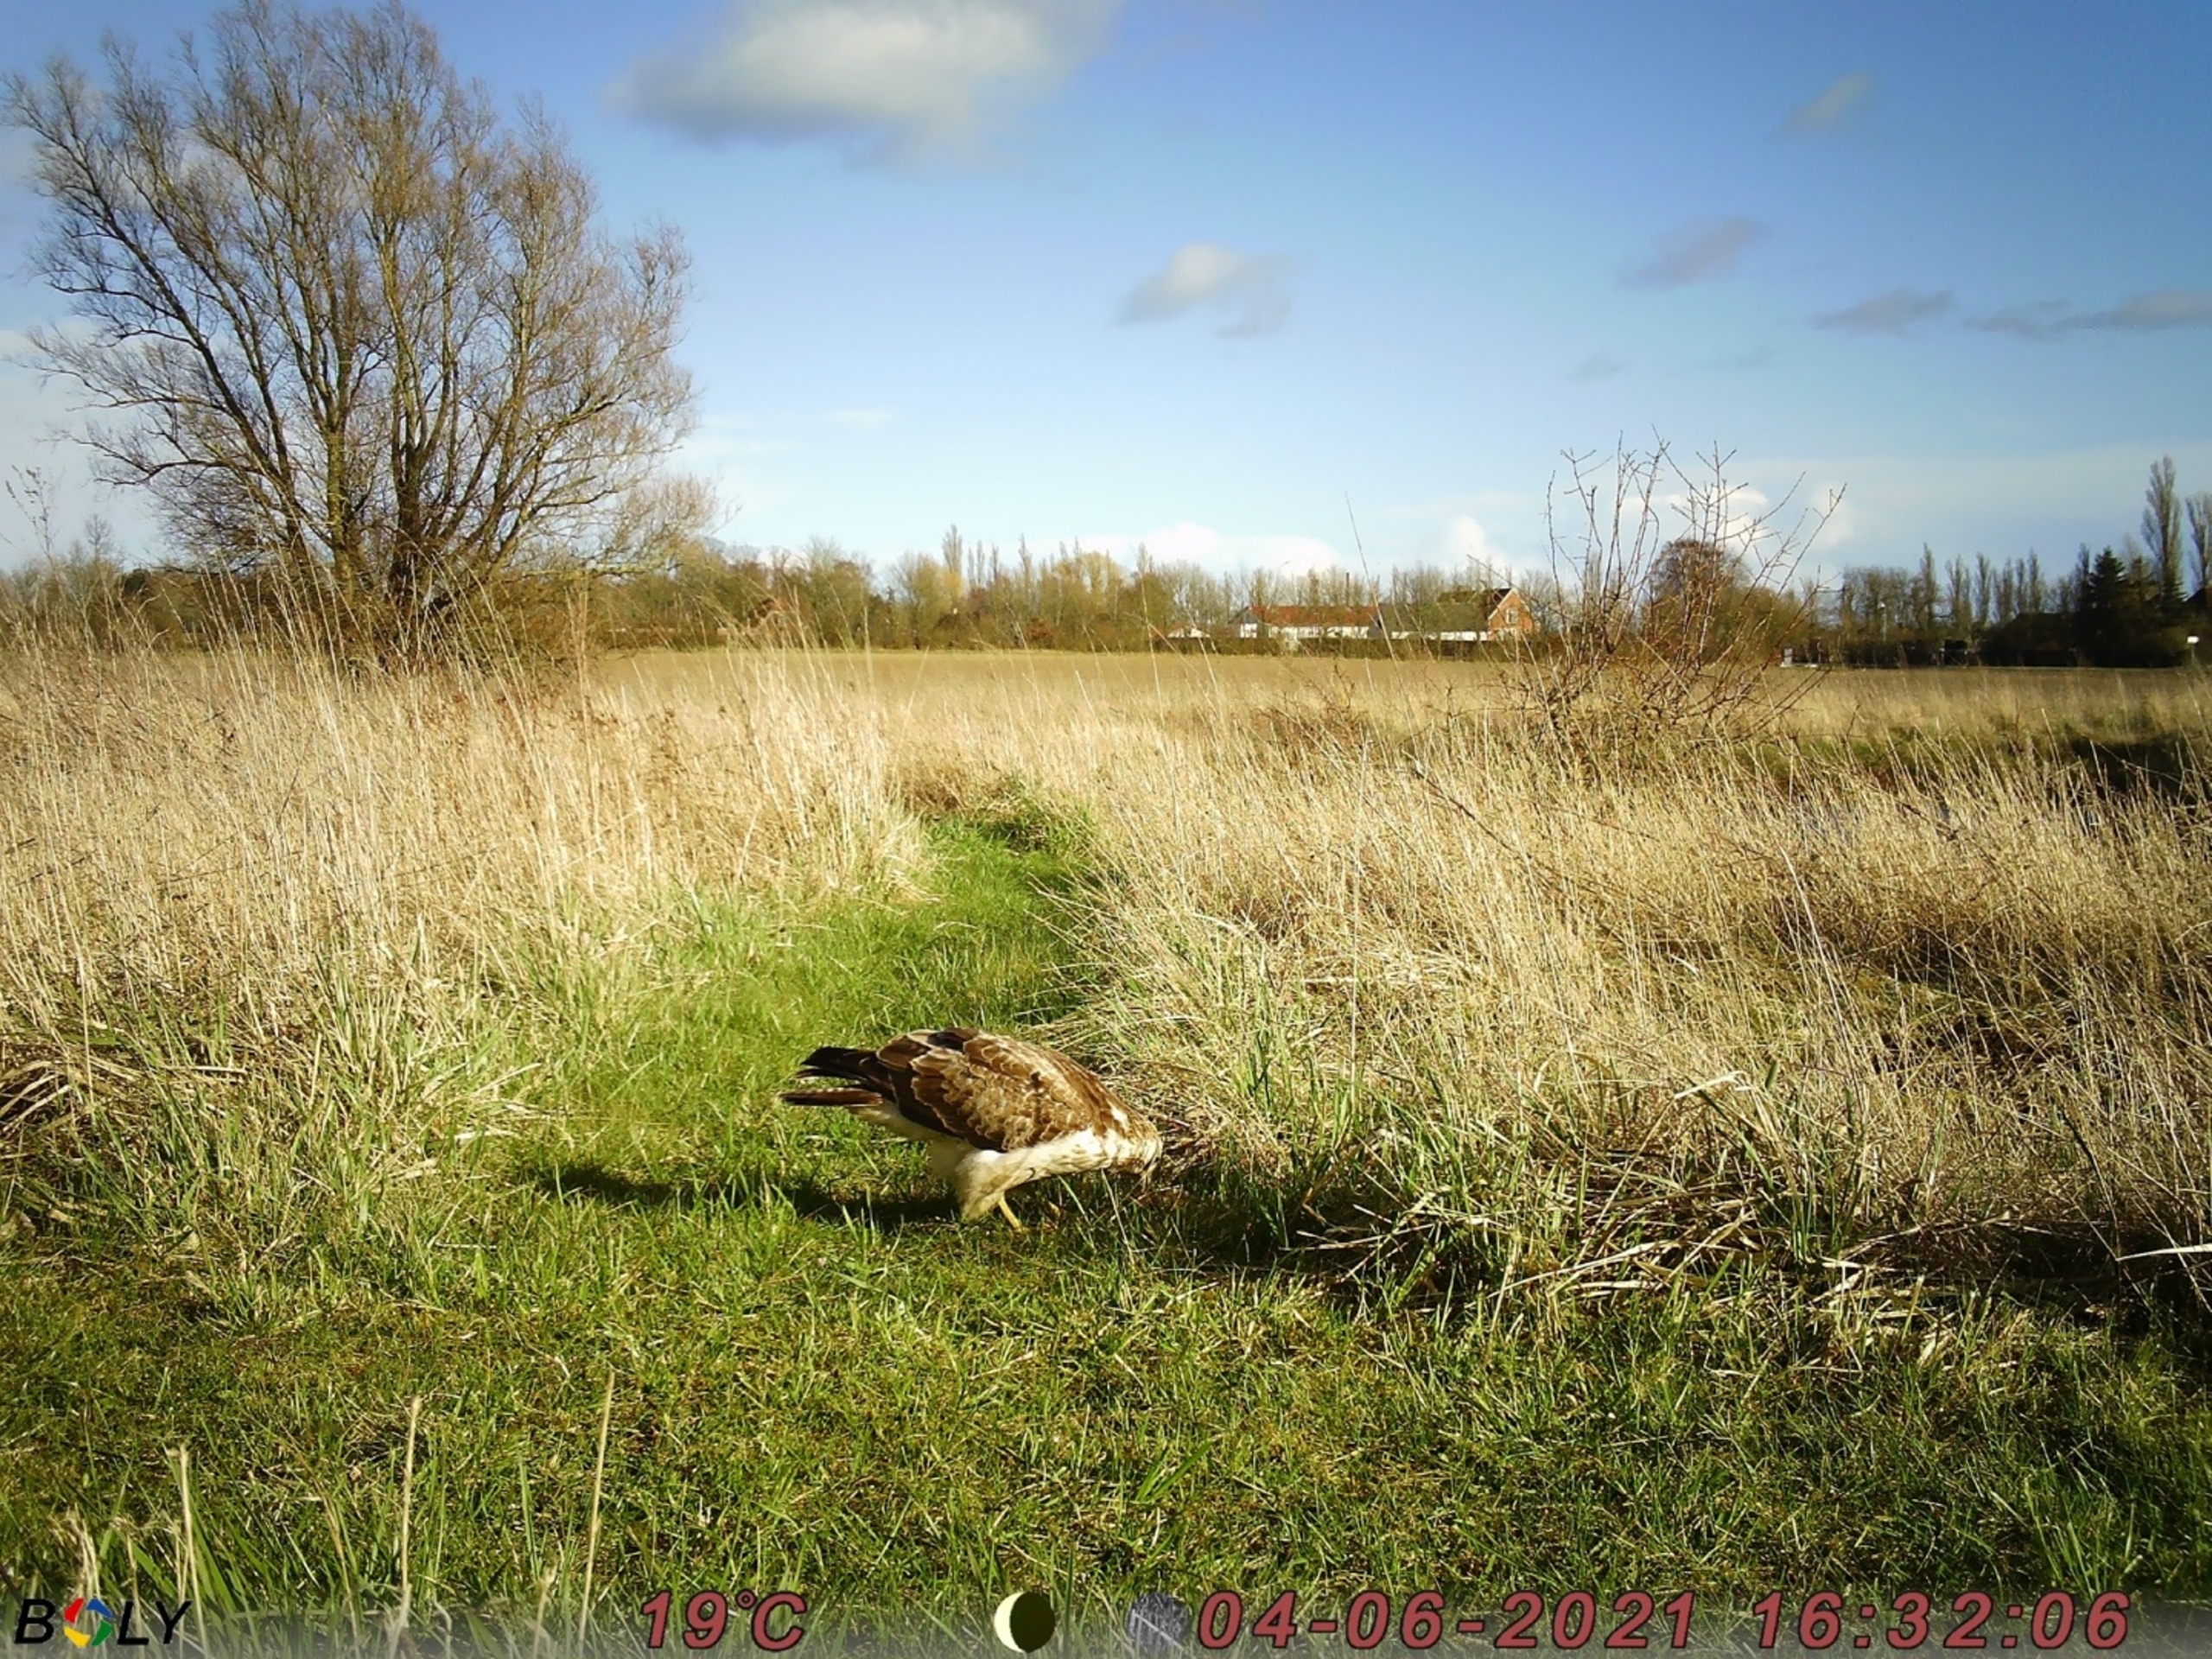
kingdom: Animalia
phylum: Chordata
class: Aves
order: Accipitriformes
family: Accipitridae
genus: Buteo
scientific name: Buteo buteo
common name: Musvåge
